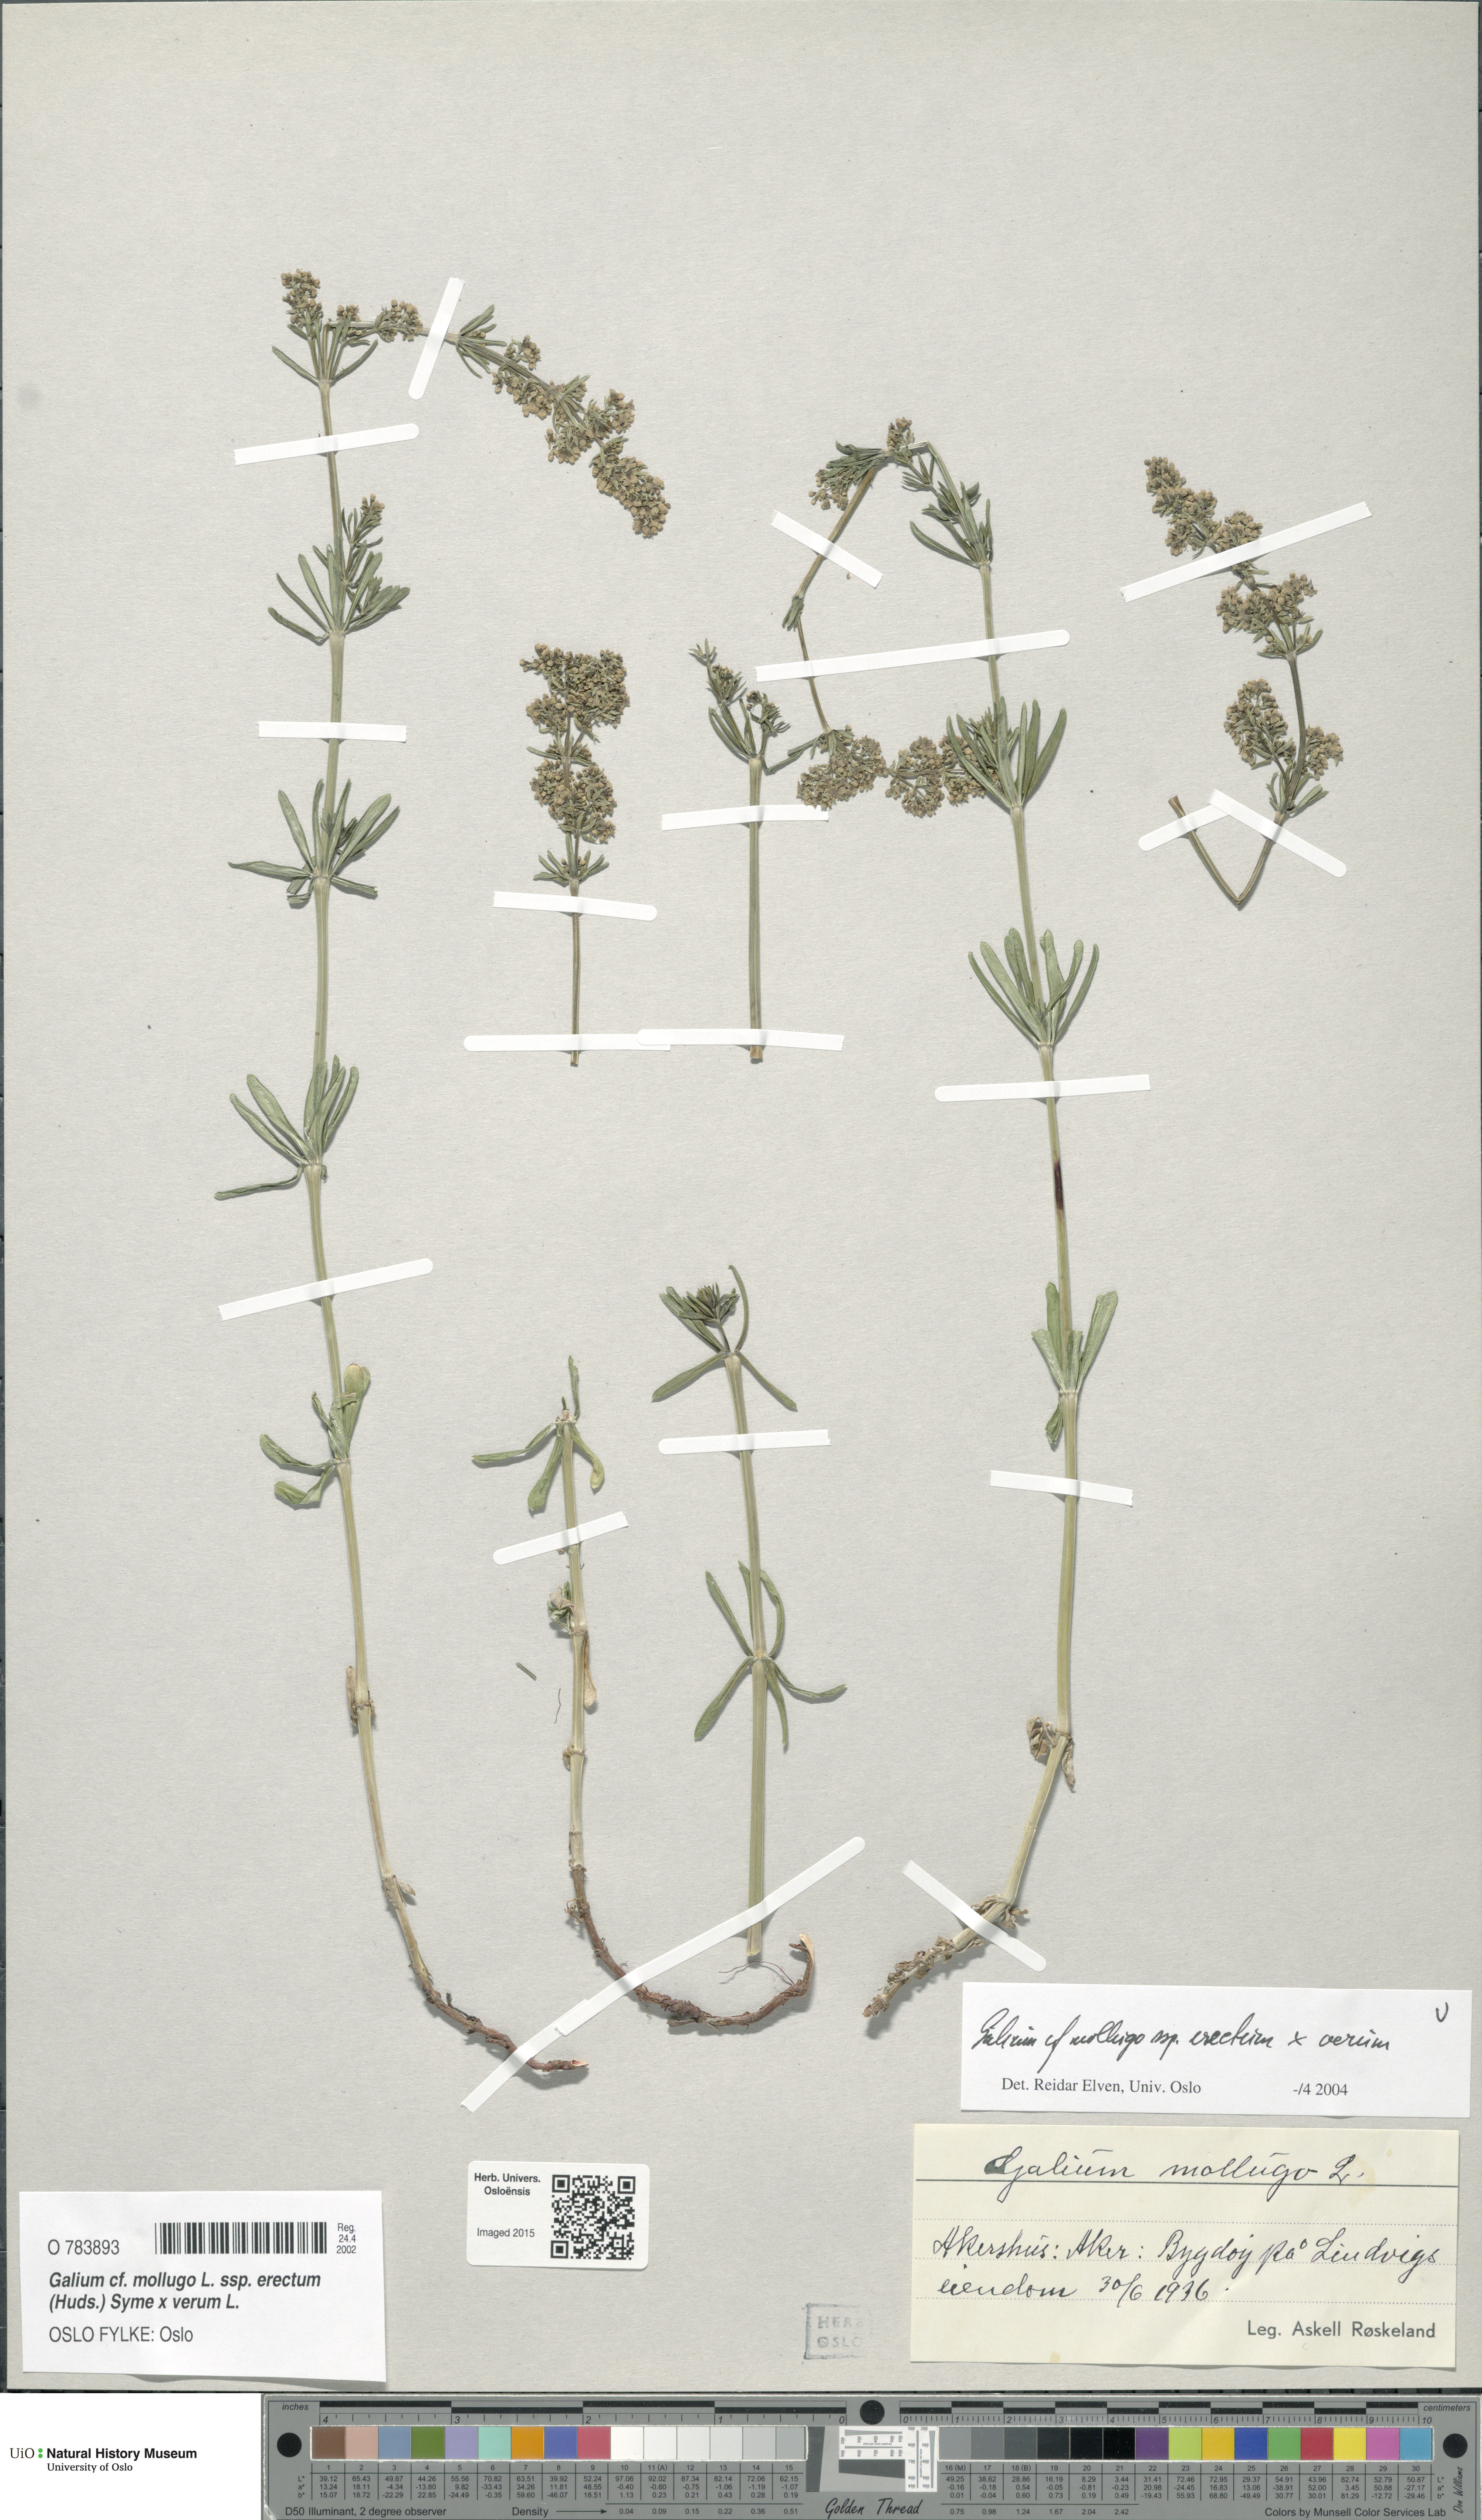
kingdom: Plantae
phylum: Tracheophyta
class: Magnoliopsida
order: Gentianales
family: Rubiaceae
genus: Galium
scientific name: Galium
